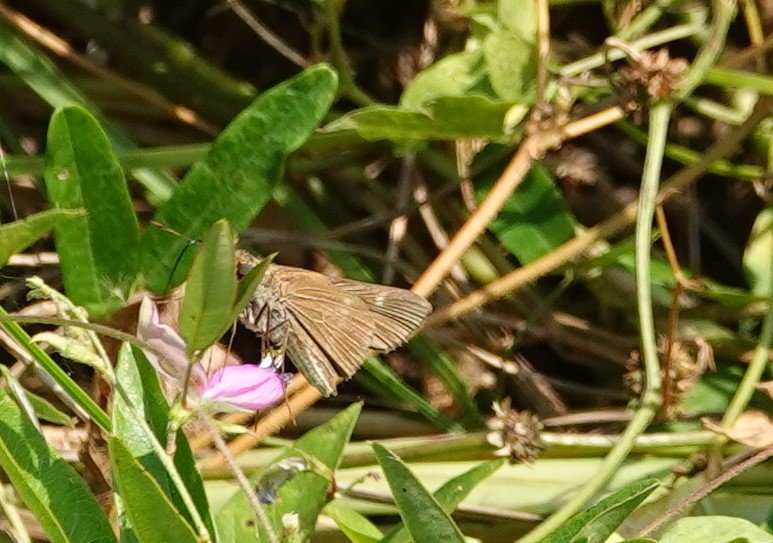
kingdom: Animalia
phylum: Arthropoda
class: Insecta
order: Lepidoptera
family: Hesperiidae
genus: Panoquina
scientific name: Panoquina ocola
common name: Ocola Skipper
